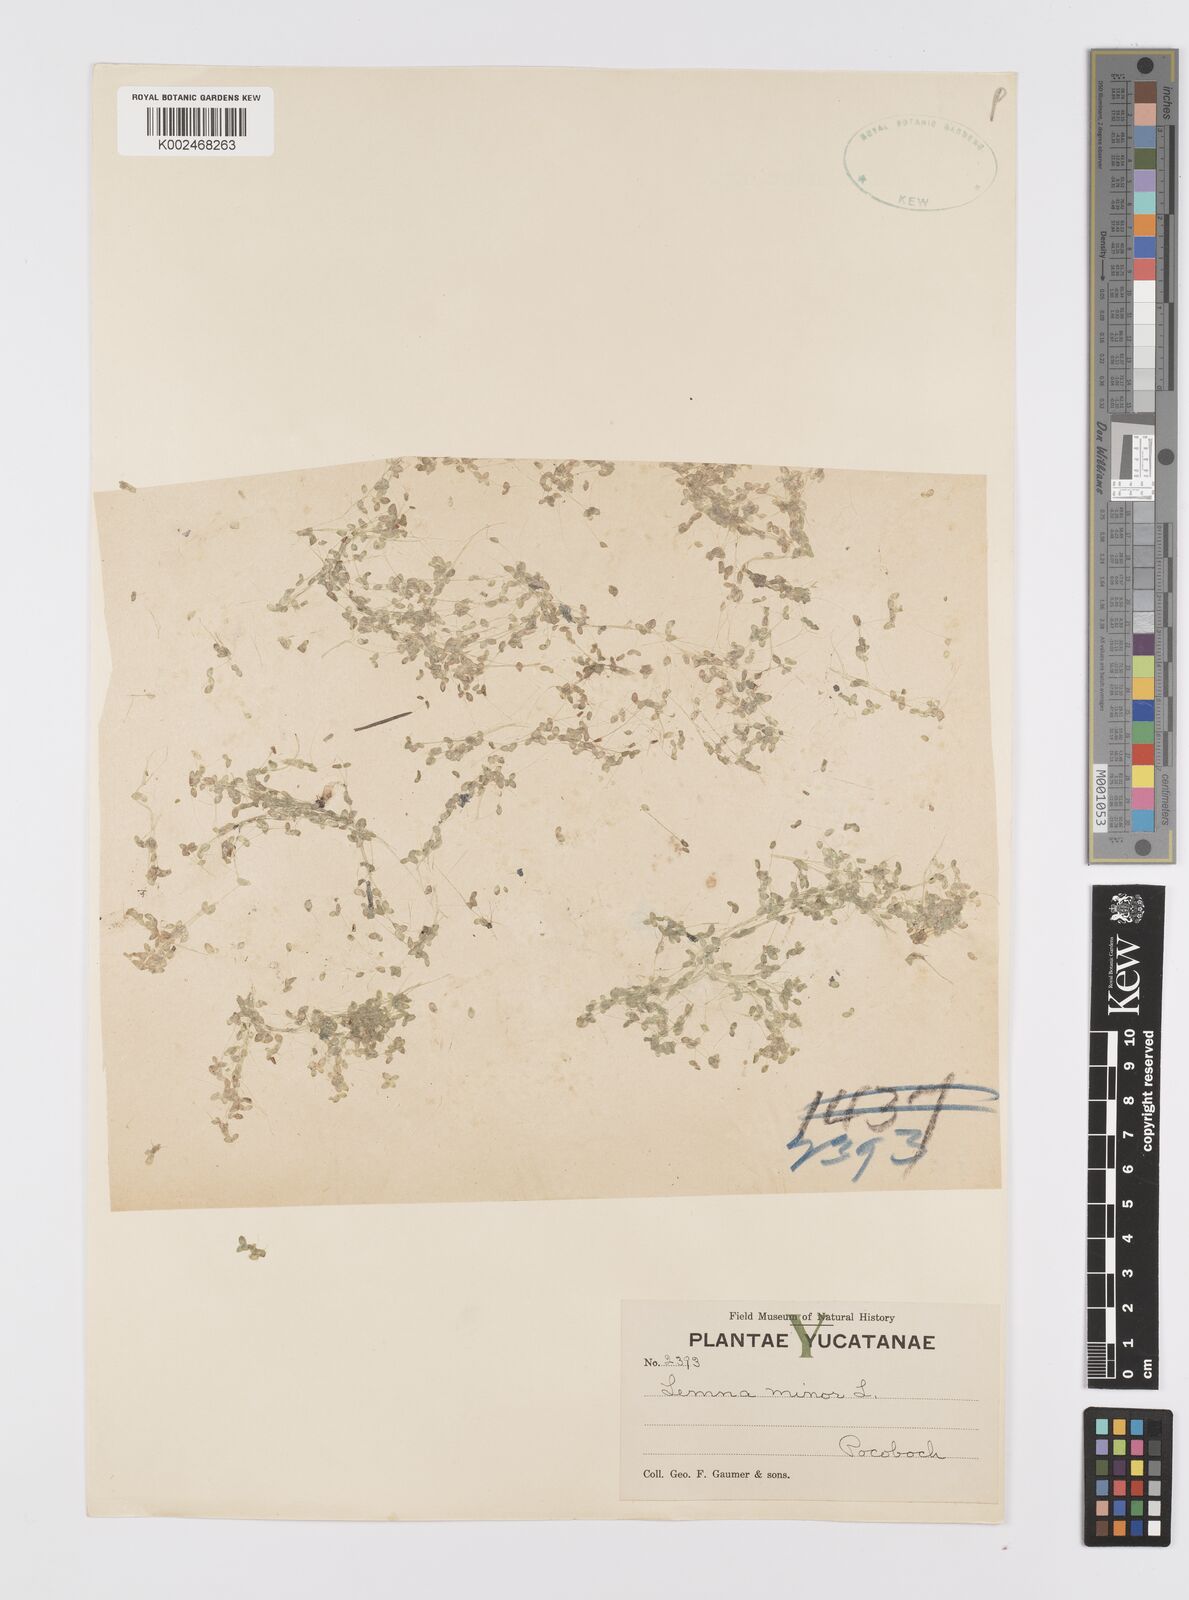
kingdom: Plantae
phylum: Tracheophyta
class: Liliopsida
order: Alismatales
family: Araceae
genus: Lemna
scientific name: Lemna minor
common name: Common duckweed
